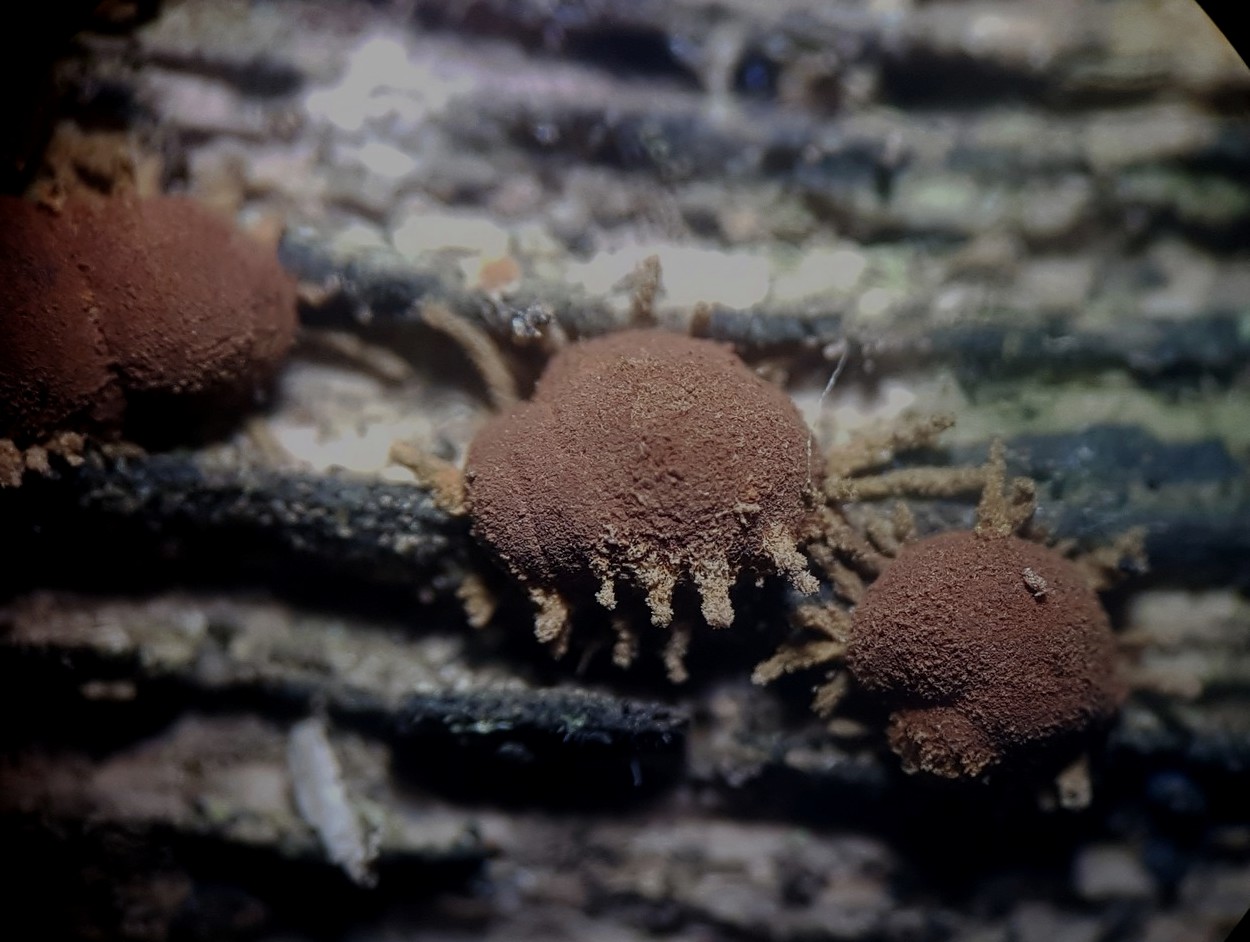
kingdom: Fungi
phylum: Ascomycota
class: Sordariomycetes
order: Xylariales
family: Hypoxylaceae
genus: Hypoxylon
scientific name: Hypoxylon howeanum
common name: halvkugleformet kulbær
